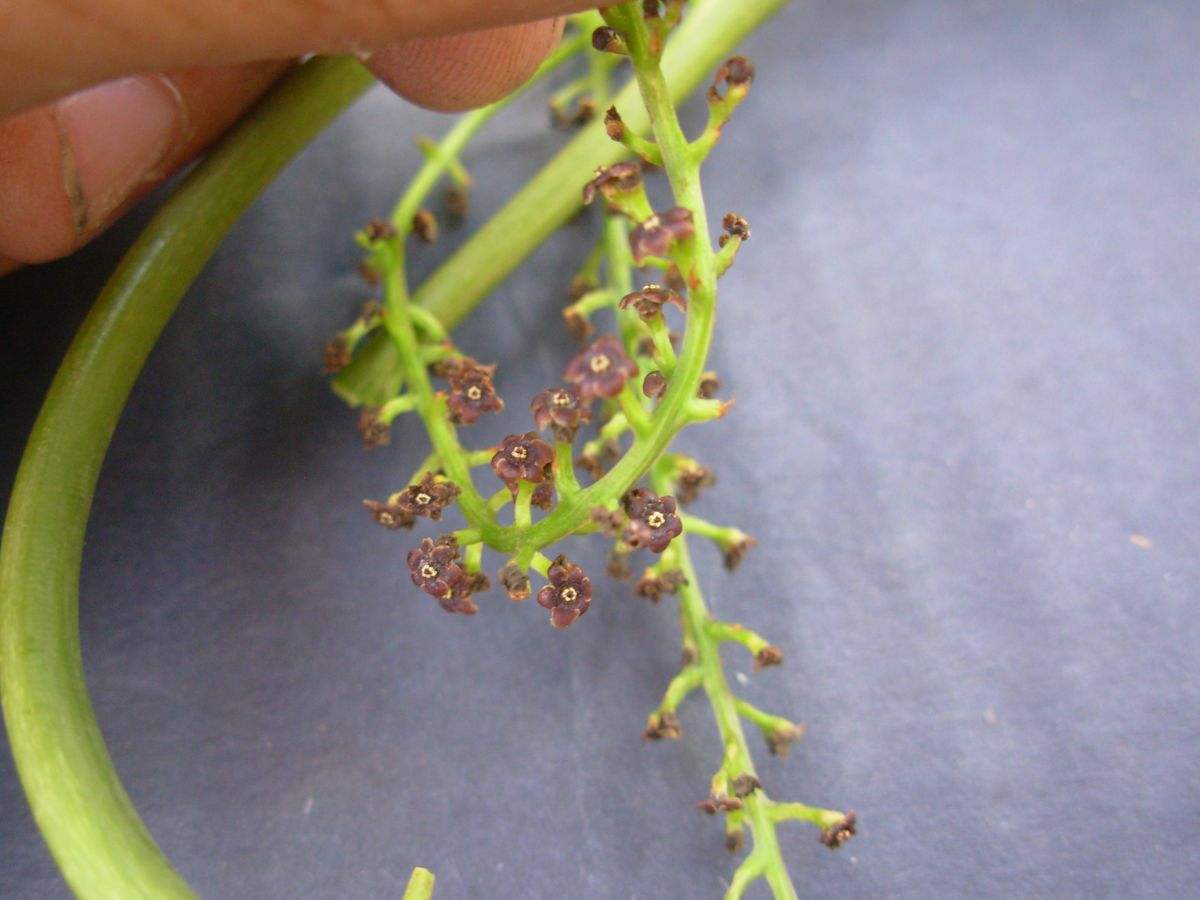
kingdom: Plantae
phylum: Tracheophyta
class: Liliopsida
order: Dioscoreales
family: Dioscoreaceae
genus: Dioscorea
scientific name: Dioscorea mexicana
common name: Mexican yam
